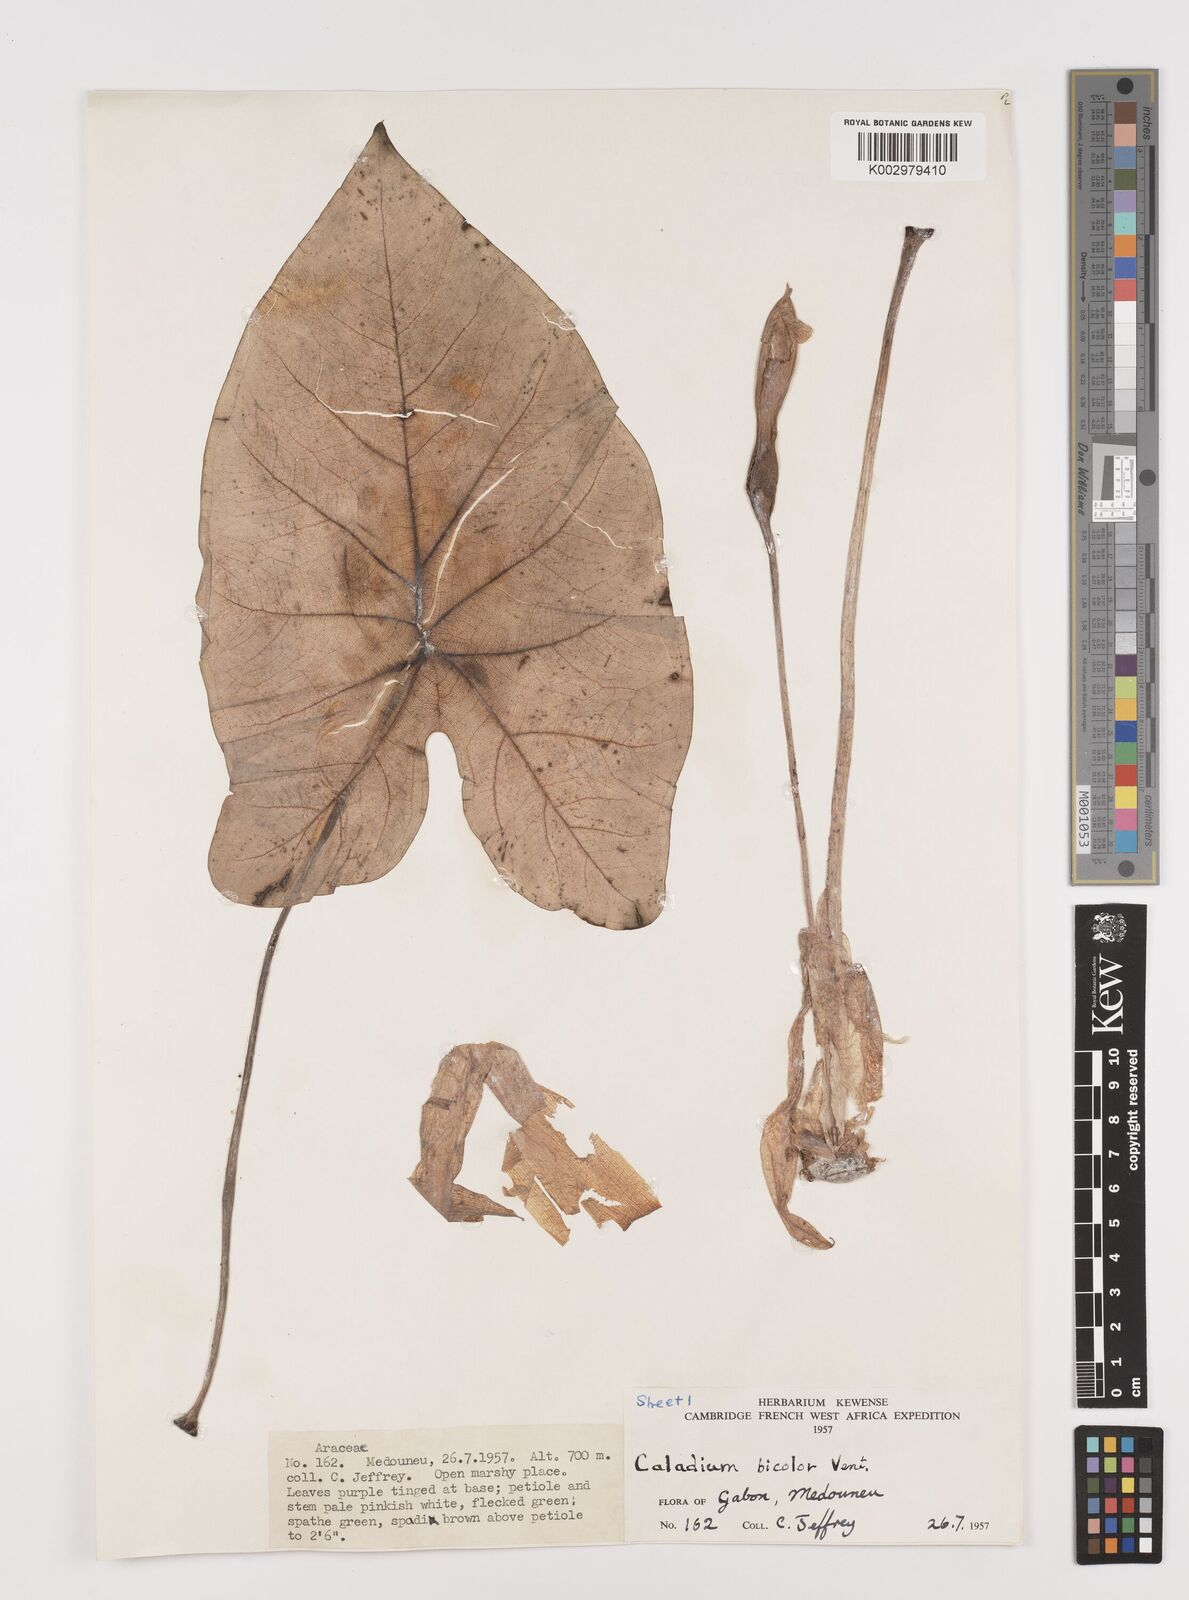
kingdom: Plantae
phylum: Tracheophyta
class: Liliopsida
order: Alismatales
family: Araceae
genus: Caladium
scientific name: Caladium bicolor
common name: Artist's pallet
